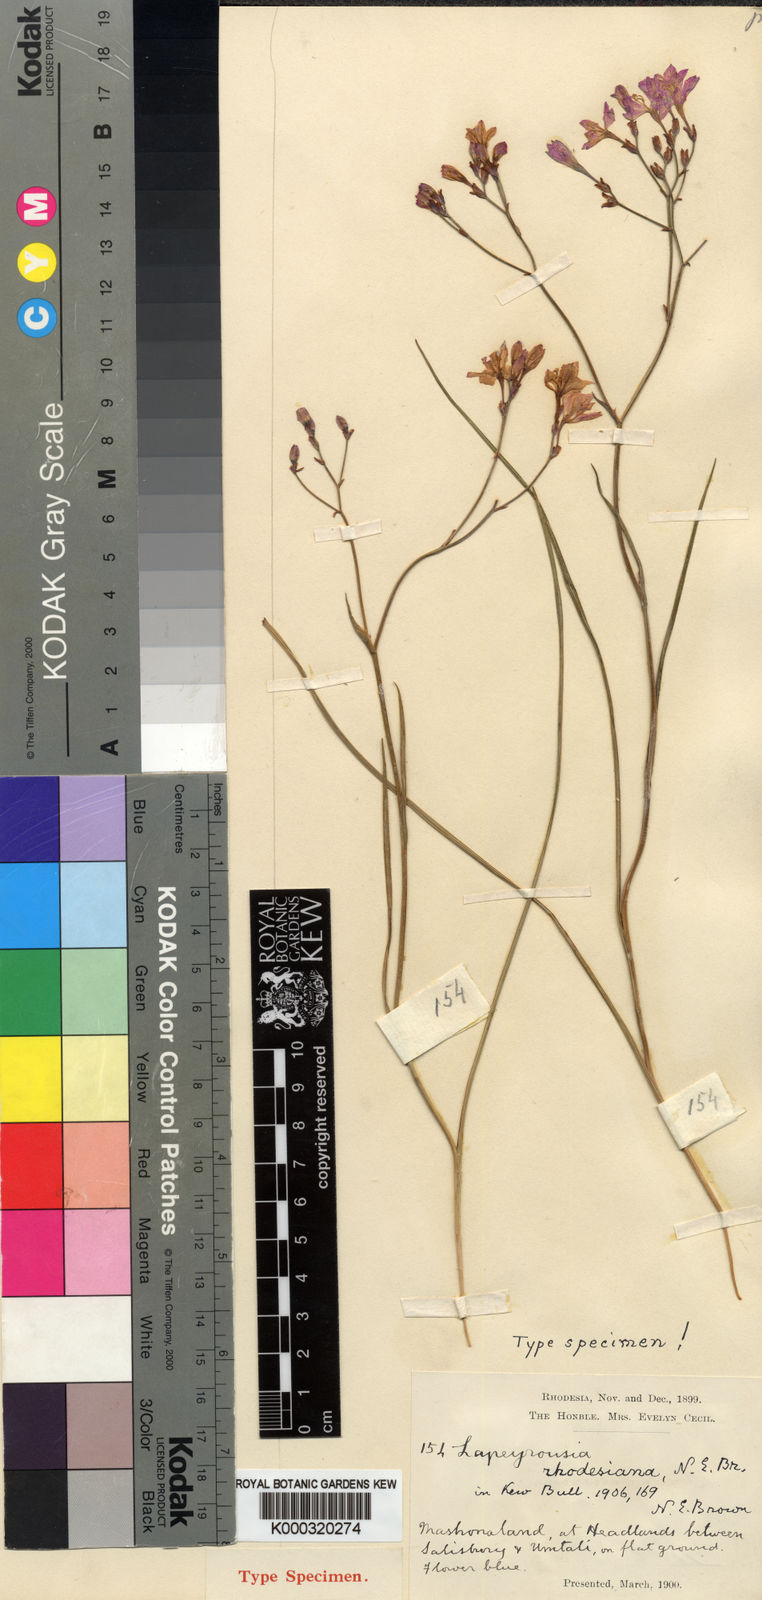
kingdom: Plantae
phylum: Tracheophyta
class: Liliopsida
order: Asparagales
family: Iridaceae
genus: Afrosolen
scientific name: Afrosolen erythranthus
